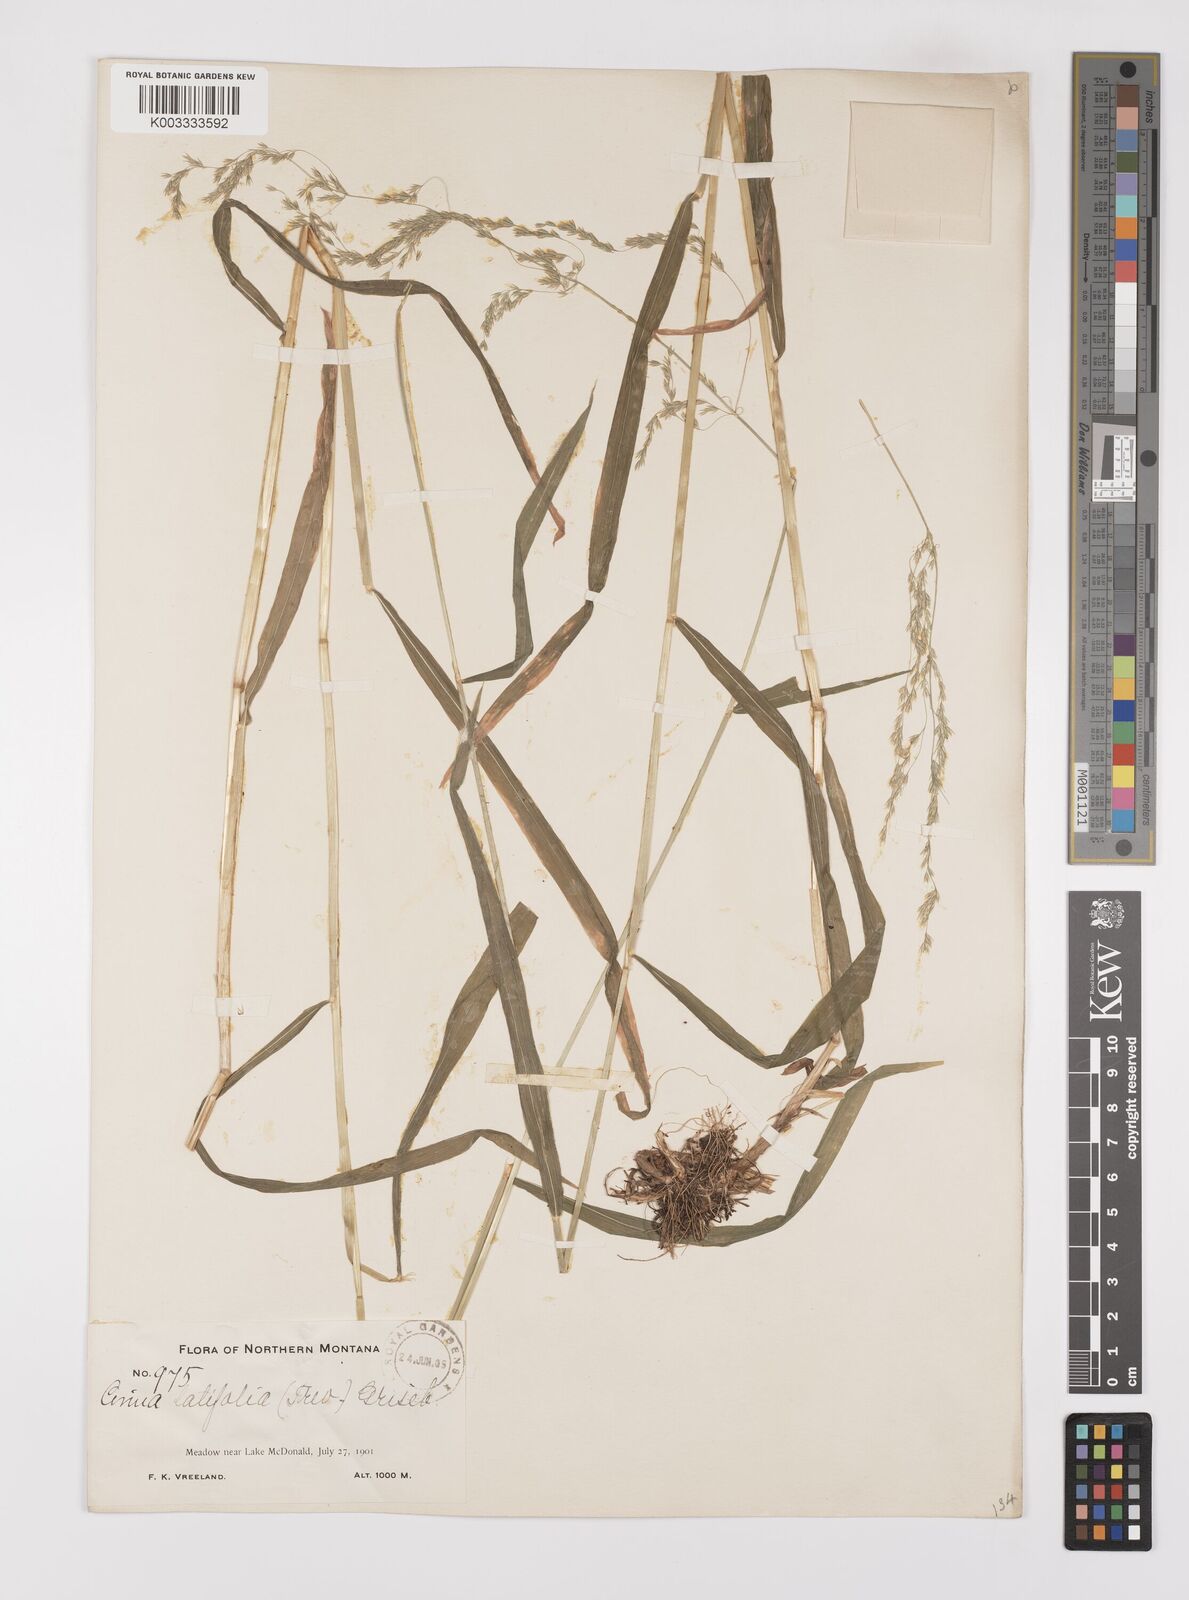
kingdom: Plantae
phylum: Tracheophyta
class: Liliopsida
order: Poales
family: Poaceae
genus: Cinna
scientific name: Cinna latifolia
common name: Drooping woodreed
